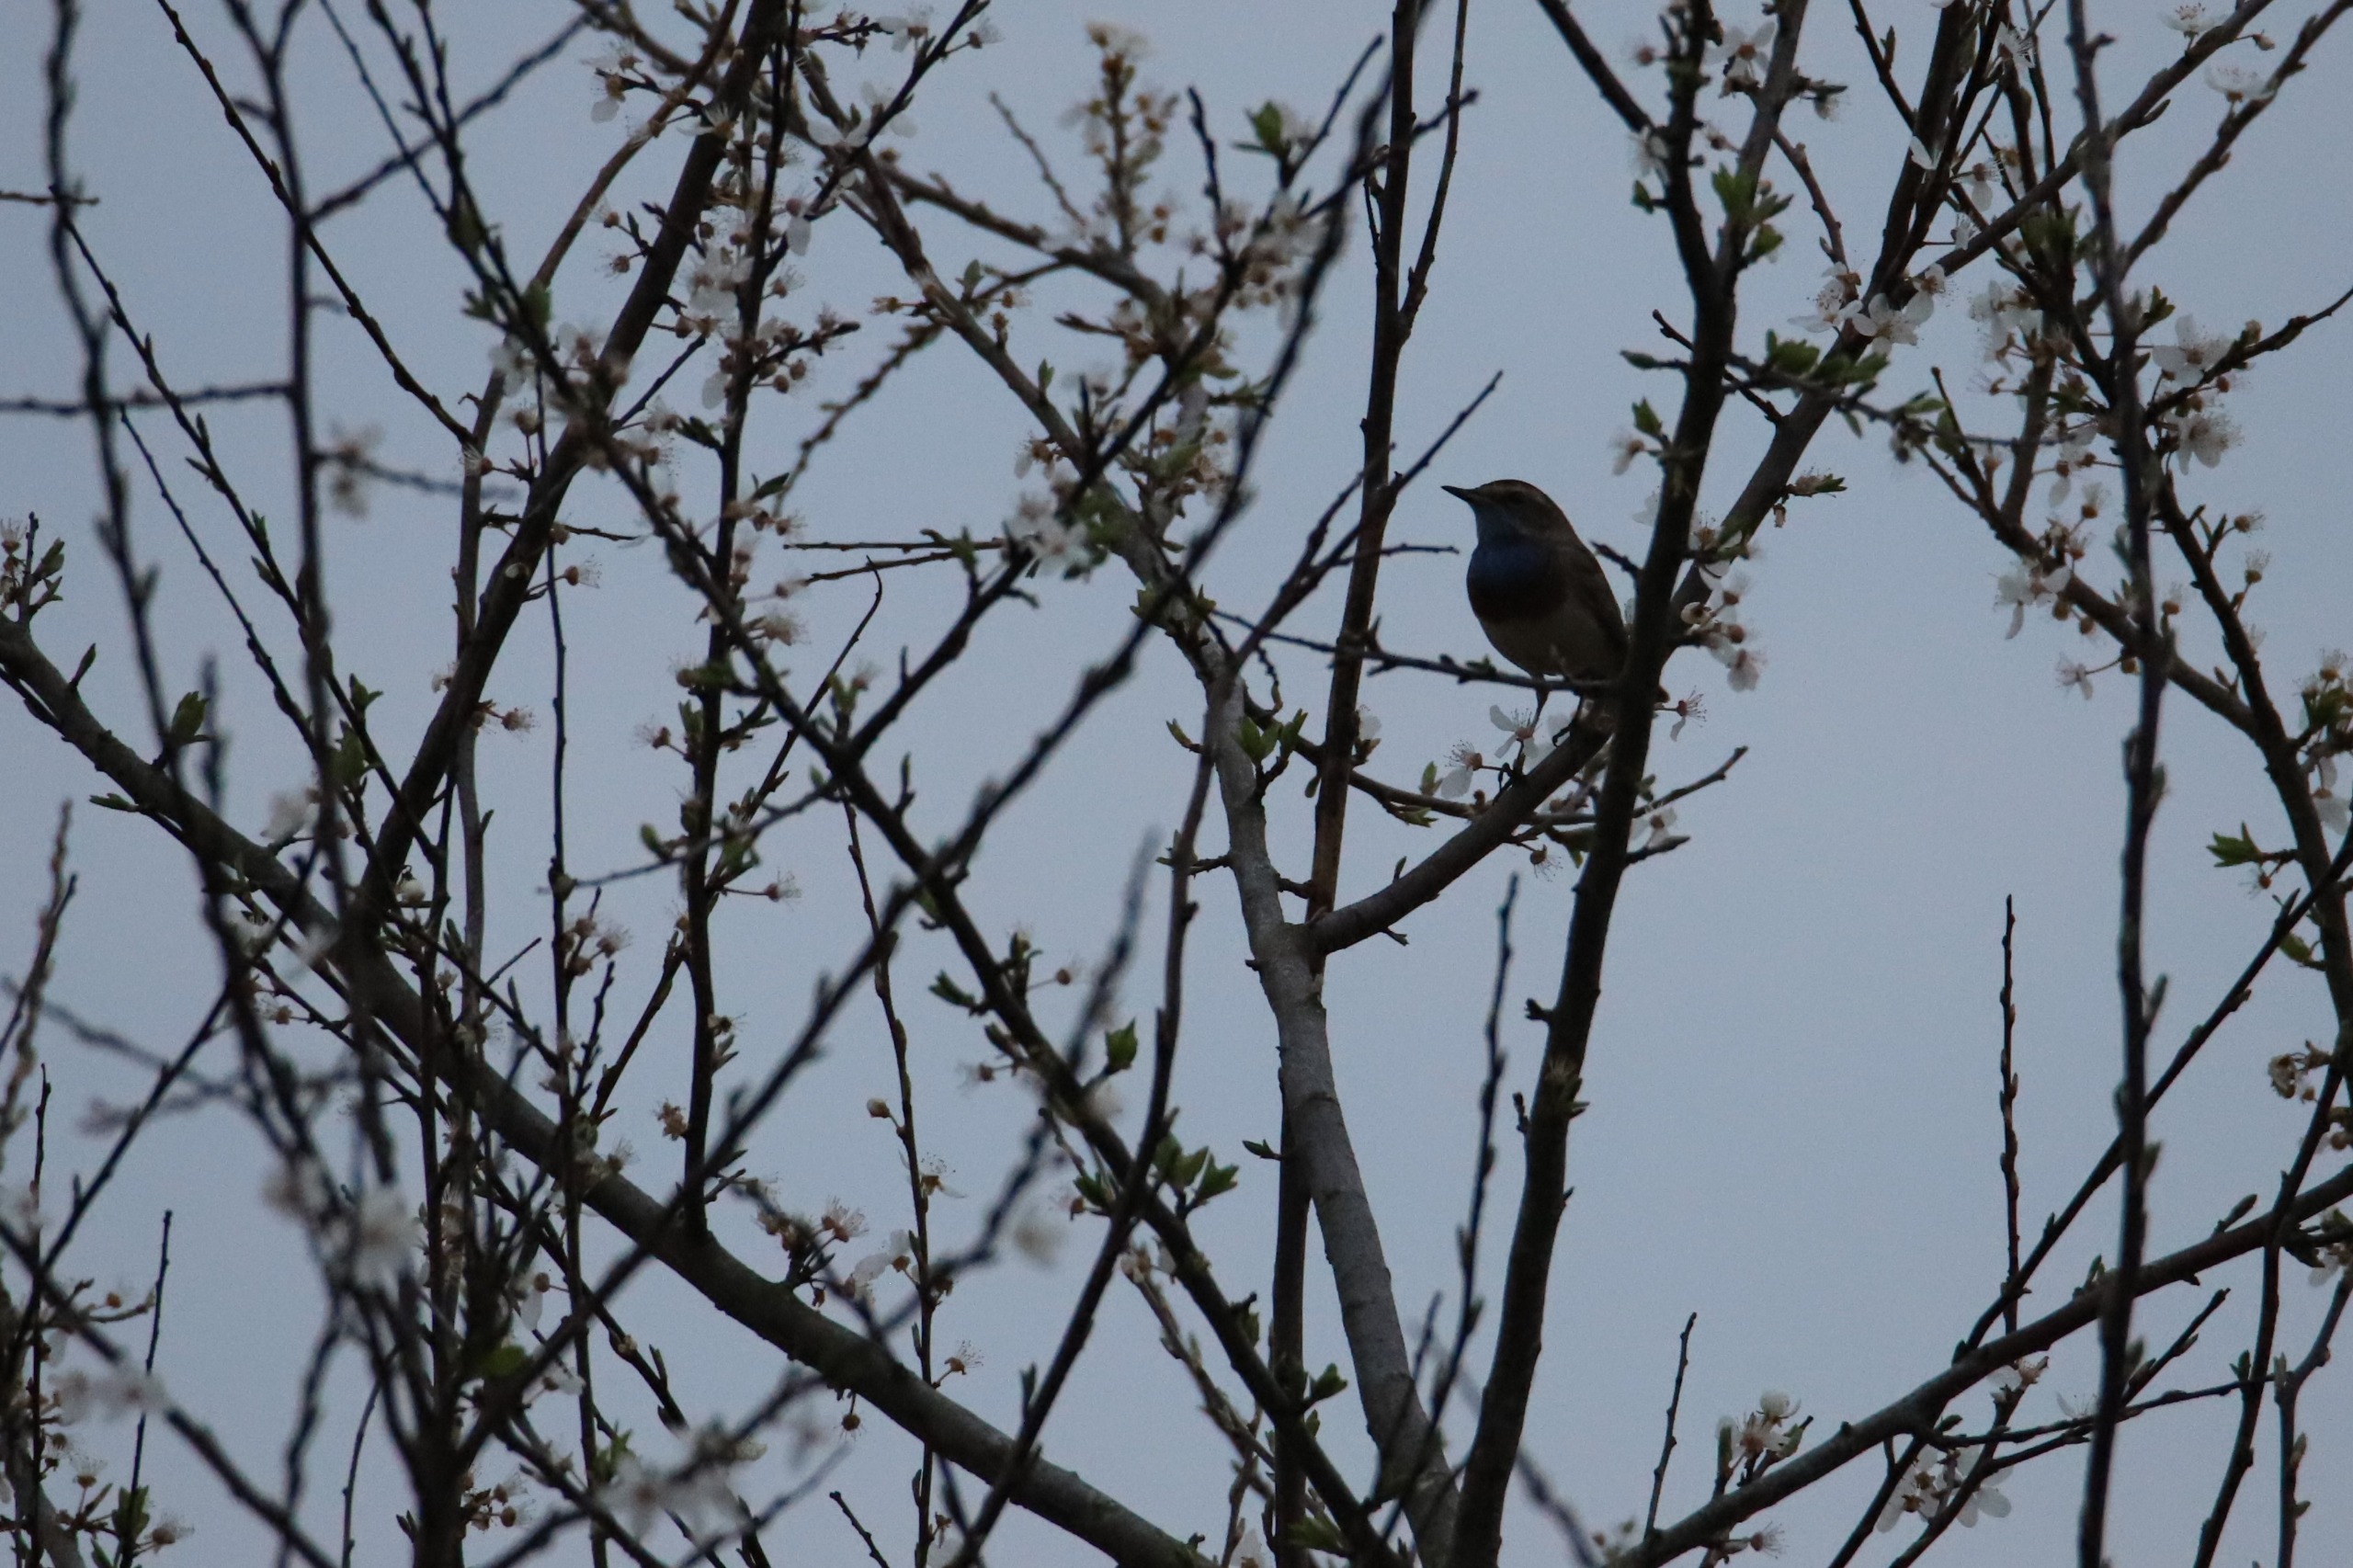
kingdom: Animalia
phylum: Chordata
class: Aves
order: Passeriformes
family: Muscicapidae
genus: Luscinia
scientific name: Luscinia svecica
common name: Blåhals
